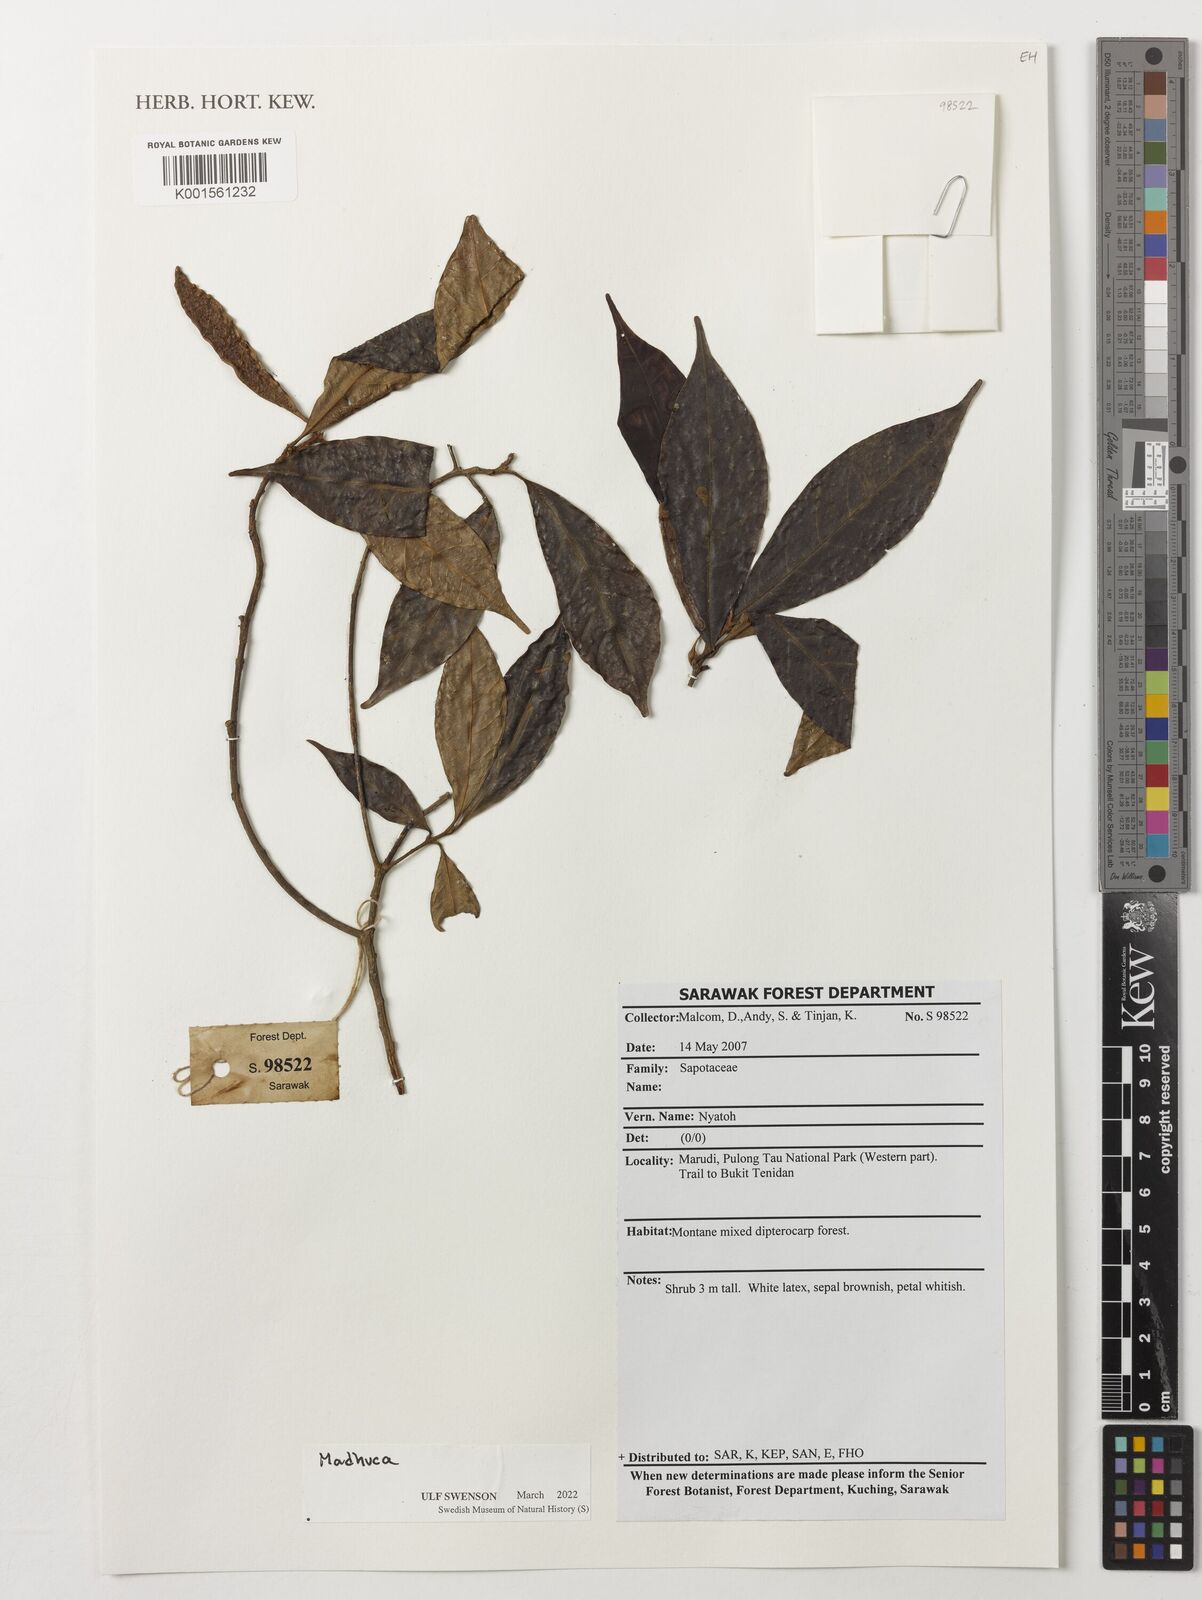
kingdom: Plantae
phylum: Tracheophyta
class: Magnoliopsida
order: Ericales
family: Sapotaceae
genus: Madhuca
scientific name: Madhuca
